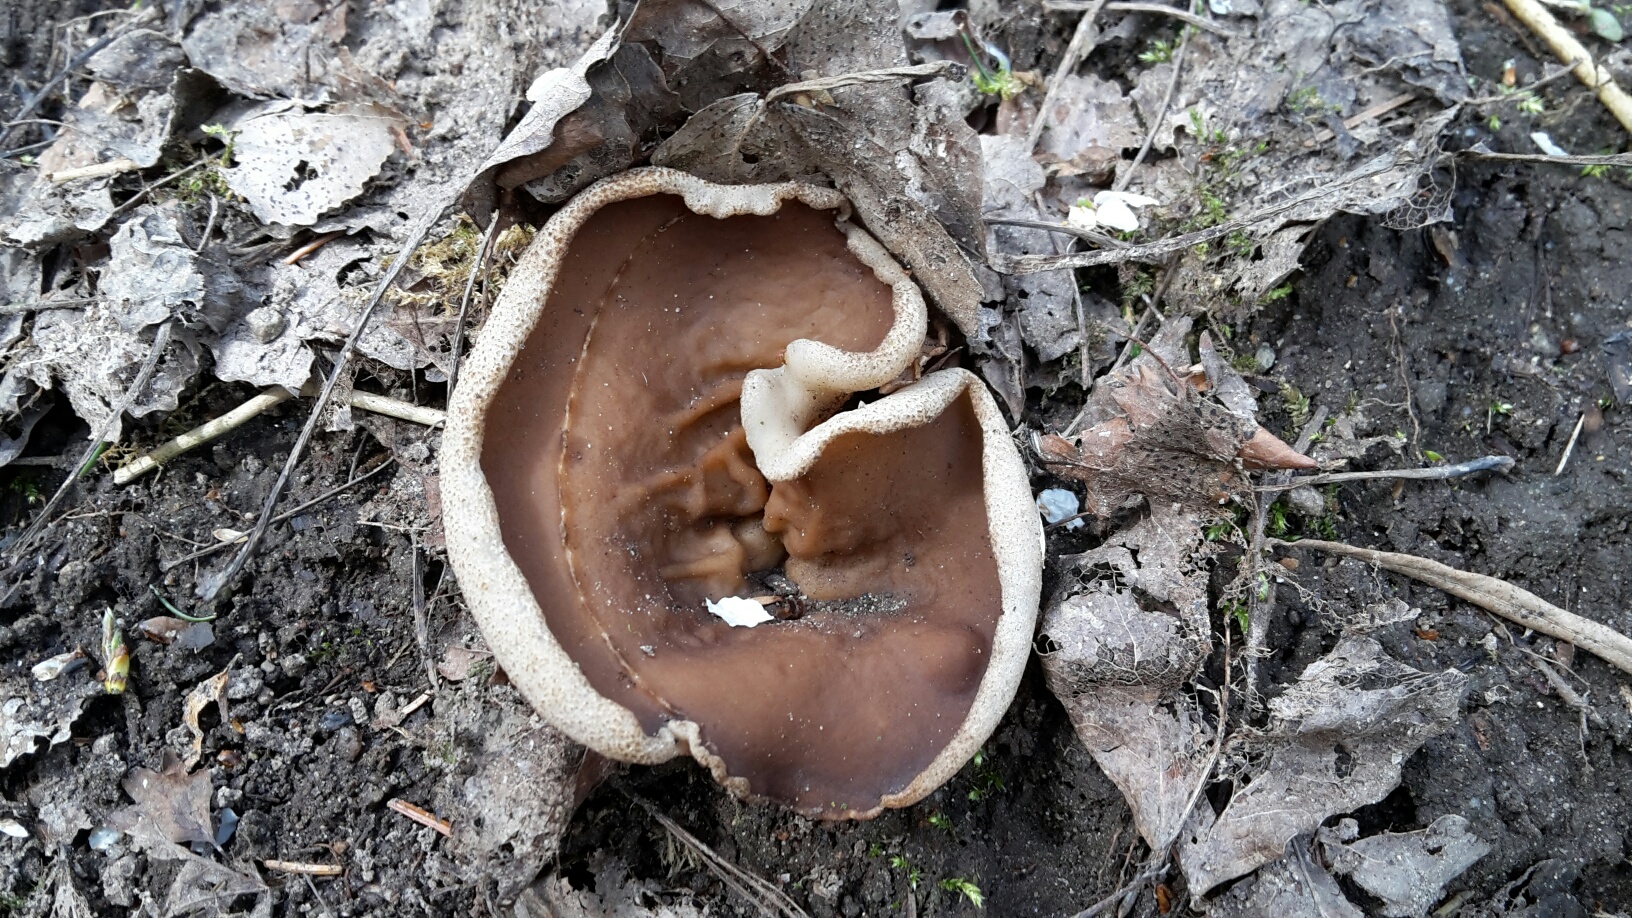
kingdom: Fungi
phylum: Ascomycota
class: Pezizomycetes
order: Pezizales
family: Morchellaceae
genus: Disciotis
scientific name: Disciotis venosa
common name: klor-bægermorkel
